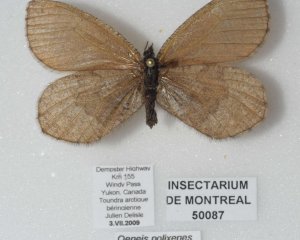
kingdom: Animalia
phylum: Arthropoda
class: Insecta
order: Lepidoptera
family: Nymphalidae
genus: Oeneis
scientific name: Oeneis bore
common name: Polixenes Arctic
